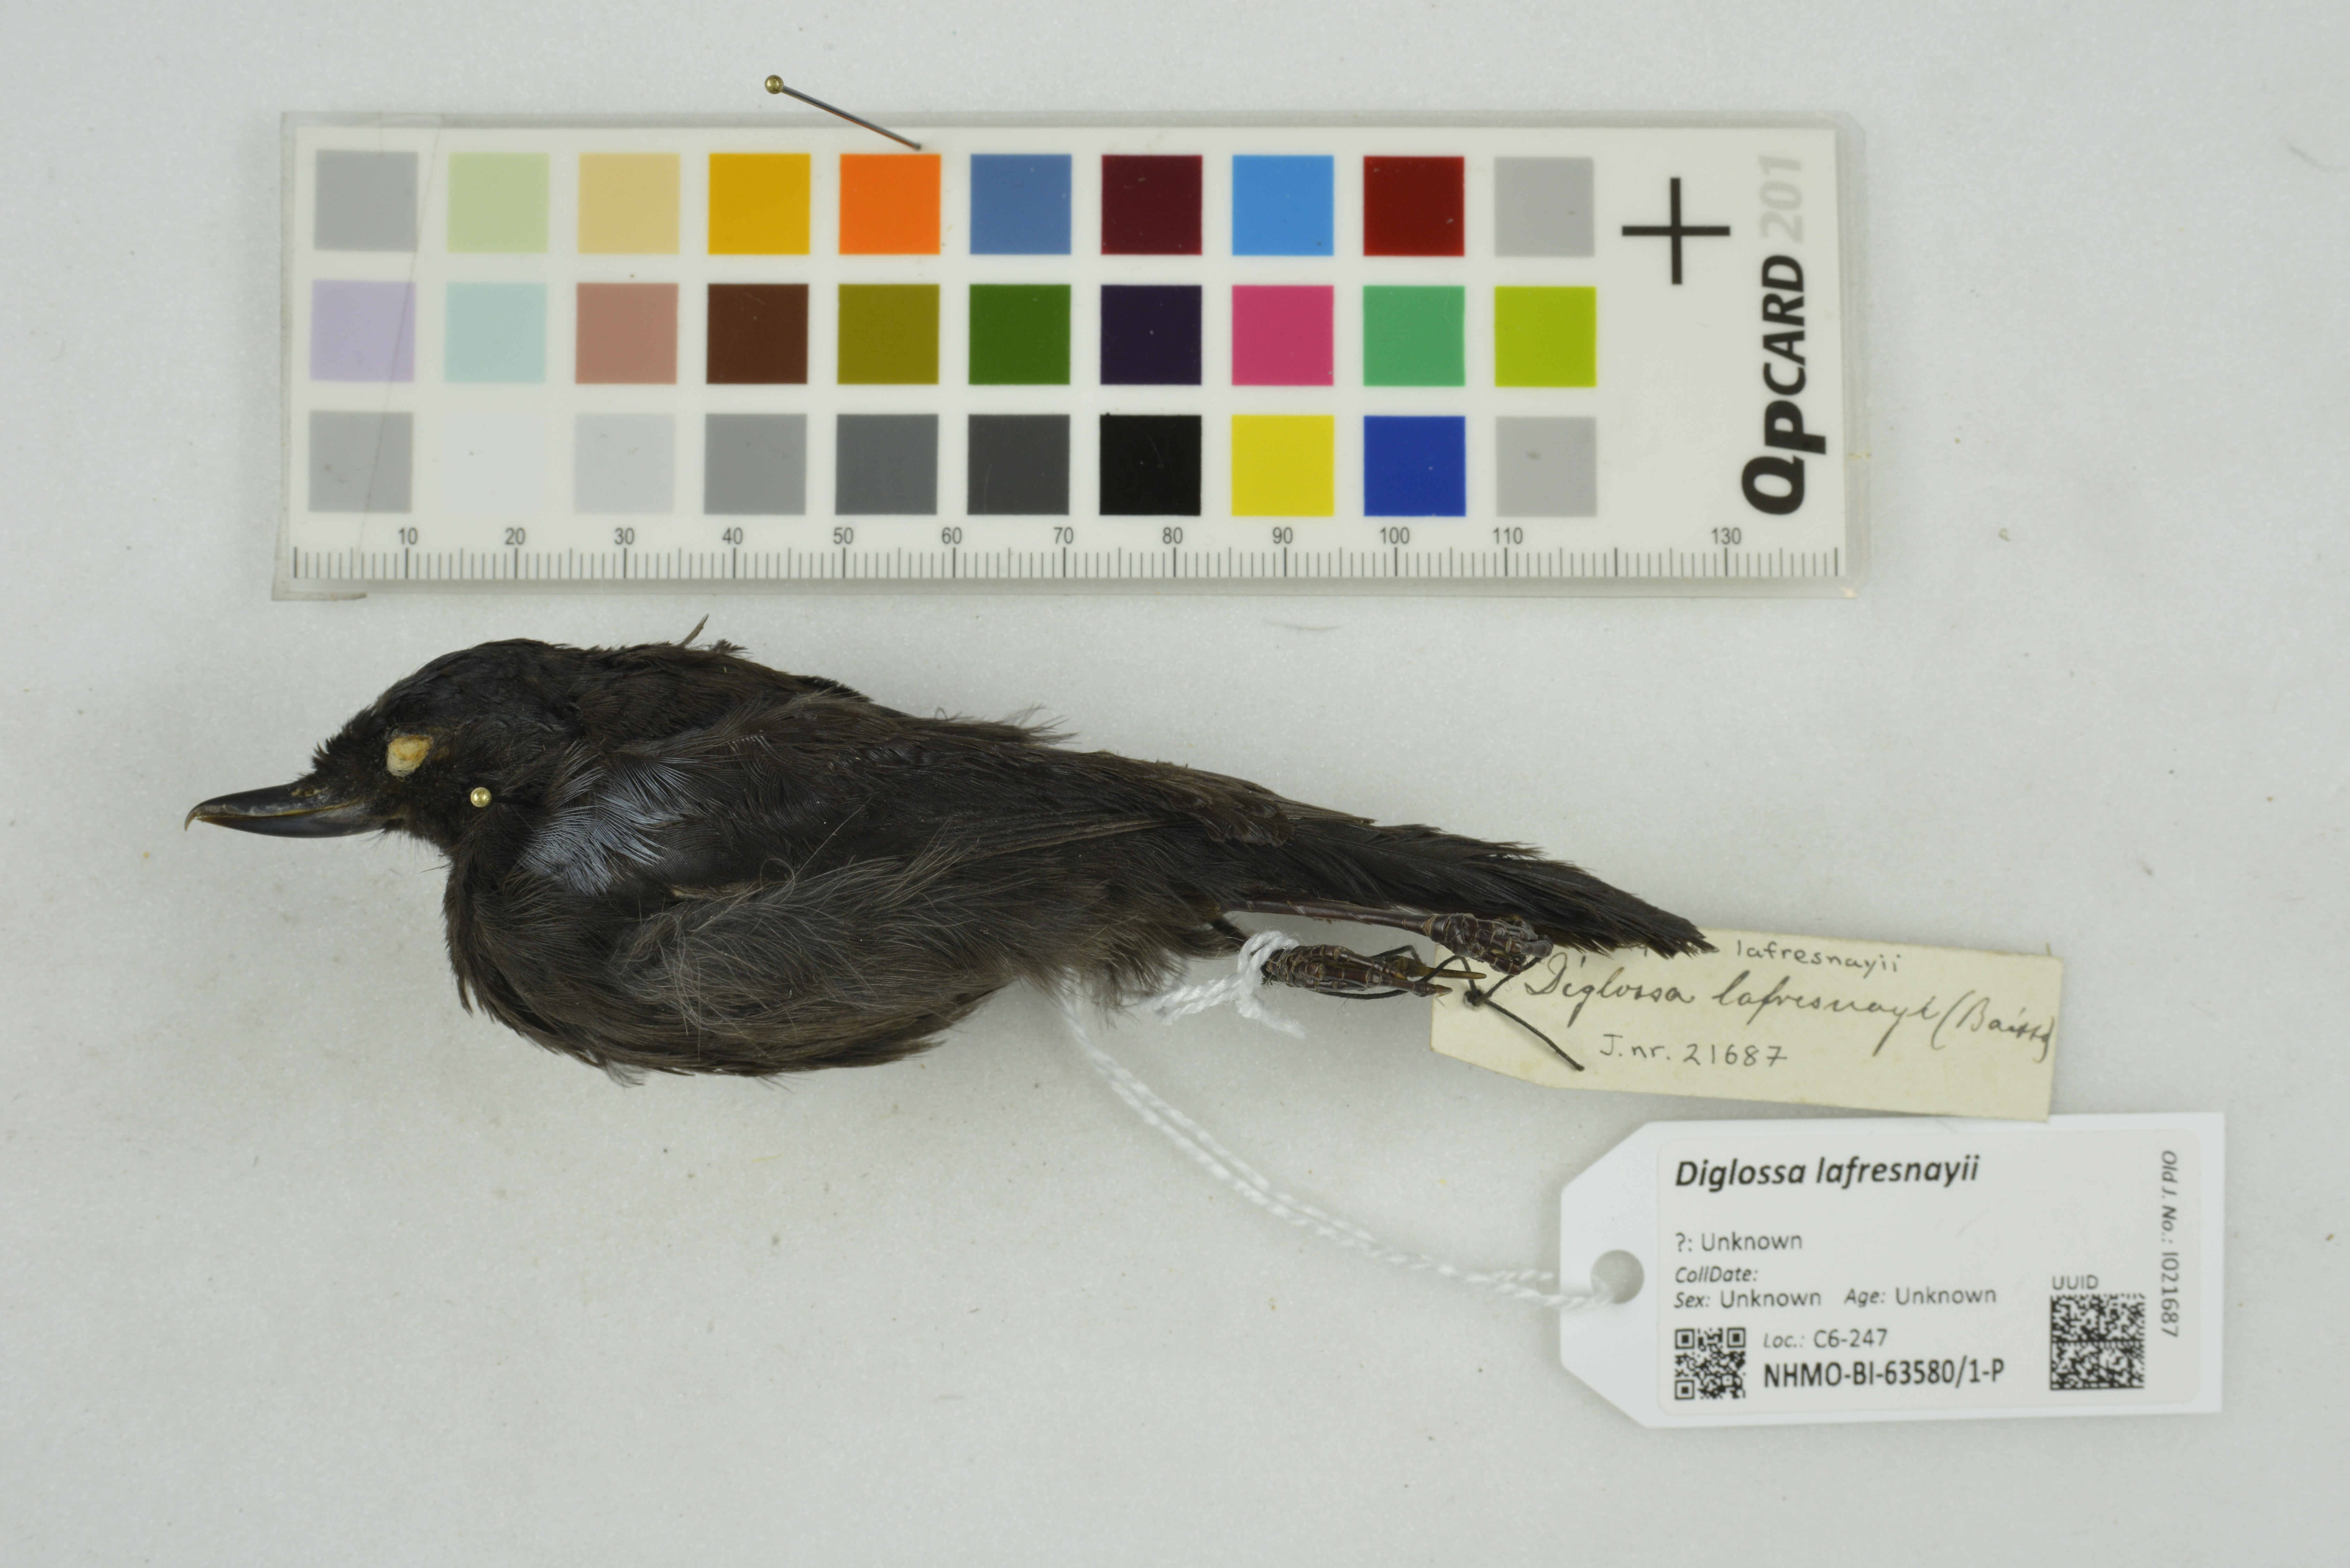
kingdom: Animalia
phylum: Chordata
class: Aves
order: Passeriformes
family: Thraupidae
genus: Diglossa
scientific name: Diglossa lafresnayii
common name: Glossy flowerpiercer
